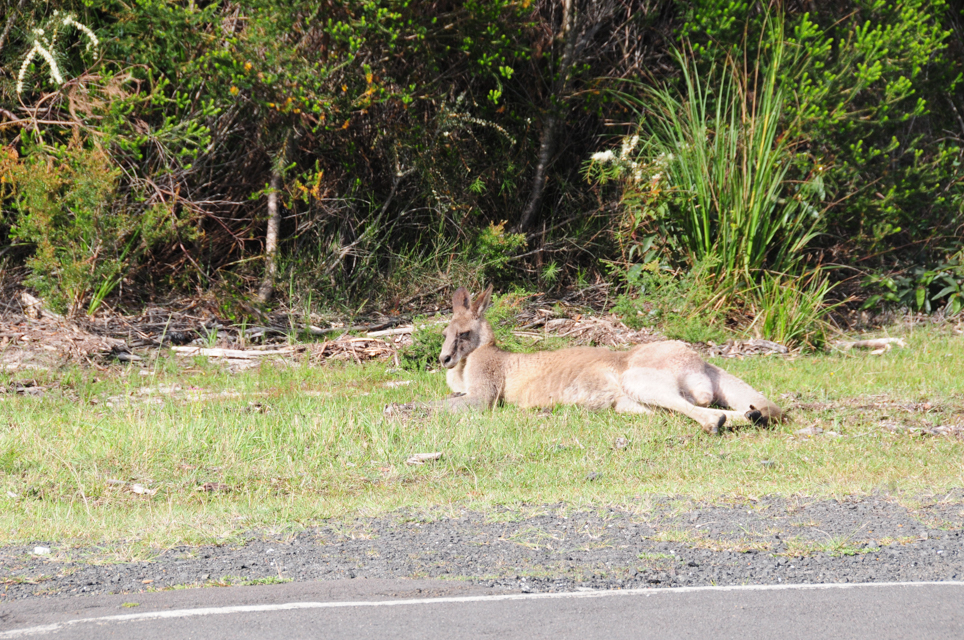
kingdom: Animalia
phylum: Chordata
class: Mammalia
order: Diprotodontia
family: Macropodidae
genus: Macropus
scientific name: Macropus giganteus
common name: Eastern grey kangaroo
